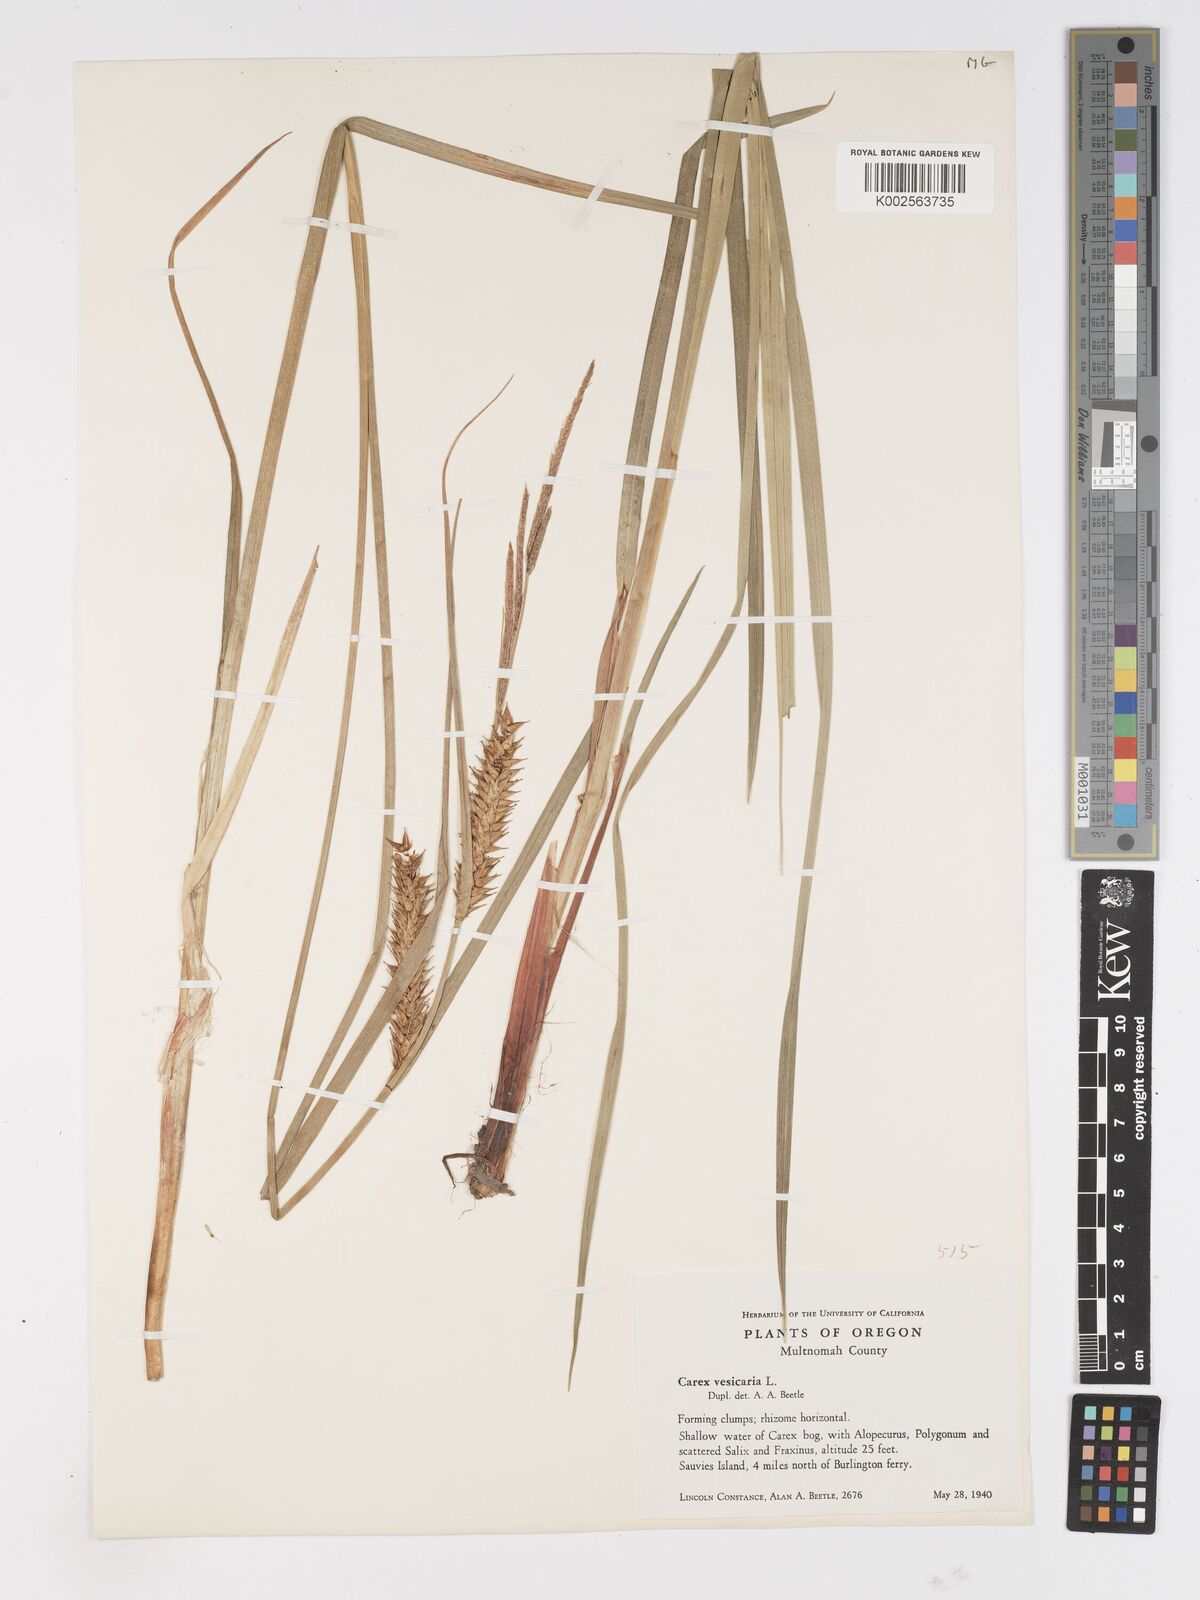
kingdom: Plantae
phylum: Tracheophyta
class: Liliopsida
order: Poales
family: Cyperaceae
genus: Carex
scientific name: Carex vesicaria
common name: Bladder-sedge
